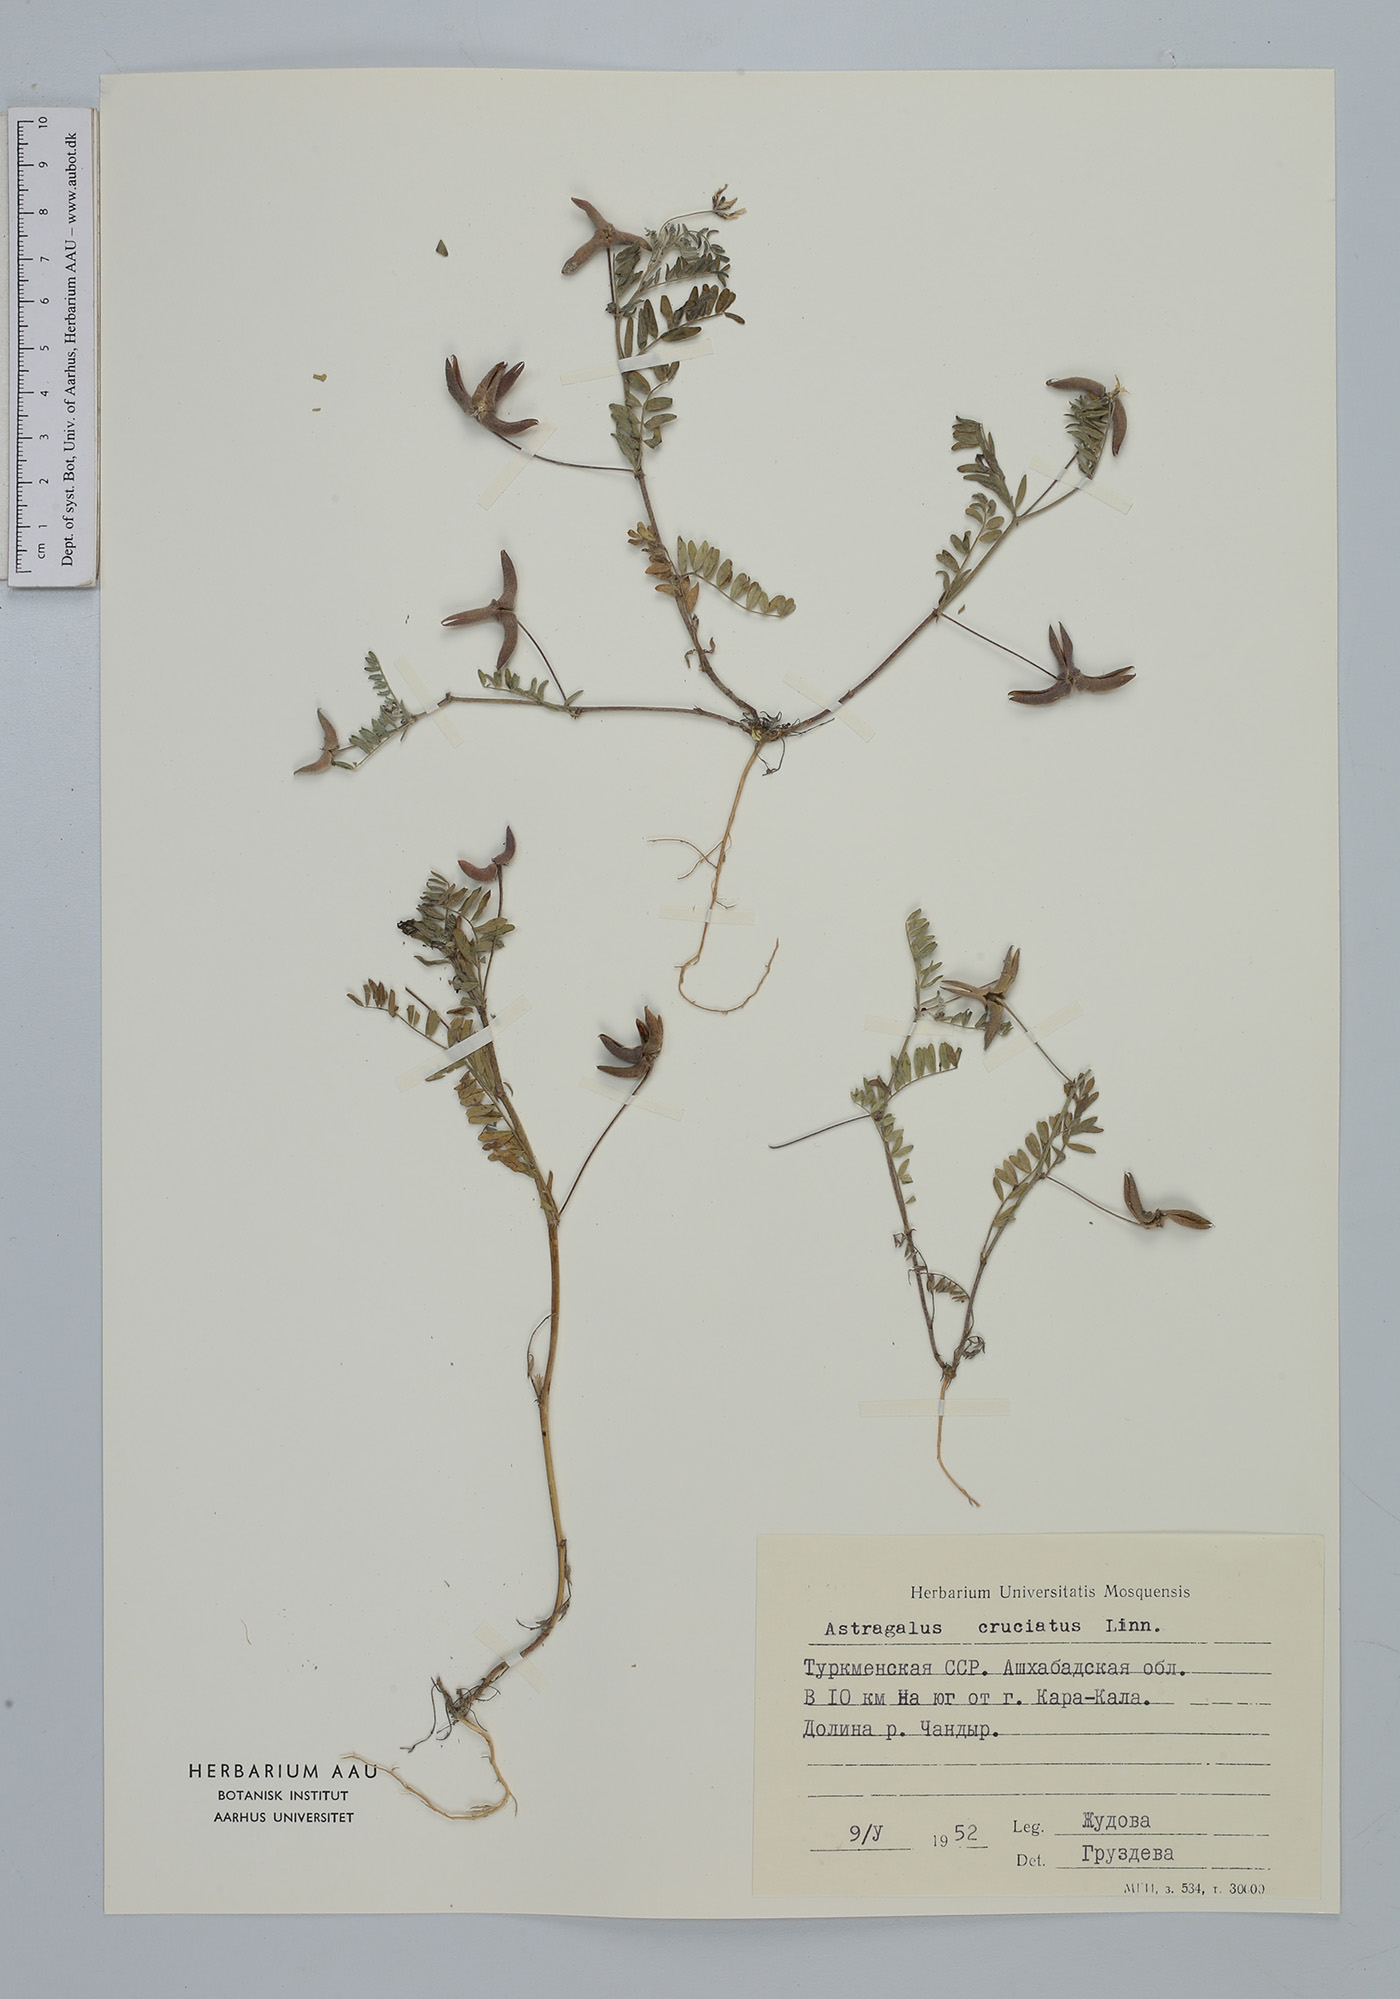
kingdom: Plantae
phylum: Tracheophyta
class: Magnoliopsida
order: Fabales
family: Fabaceae
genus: Astragalus
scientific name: Astragalus crenatus
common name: Milk vetch
